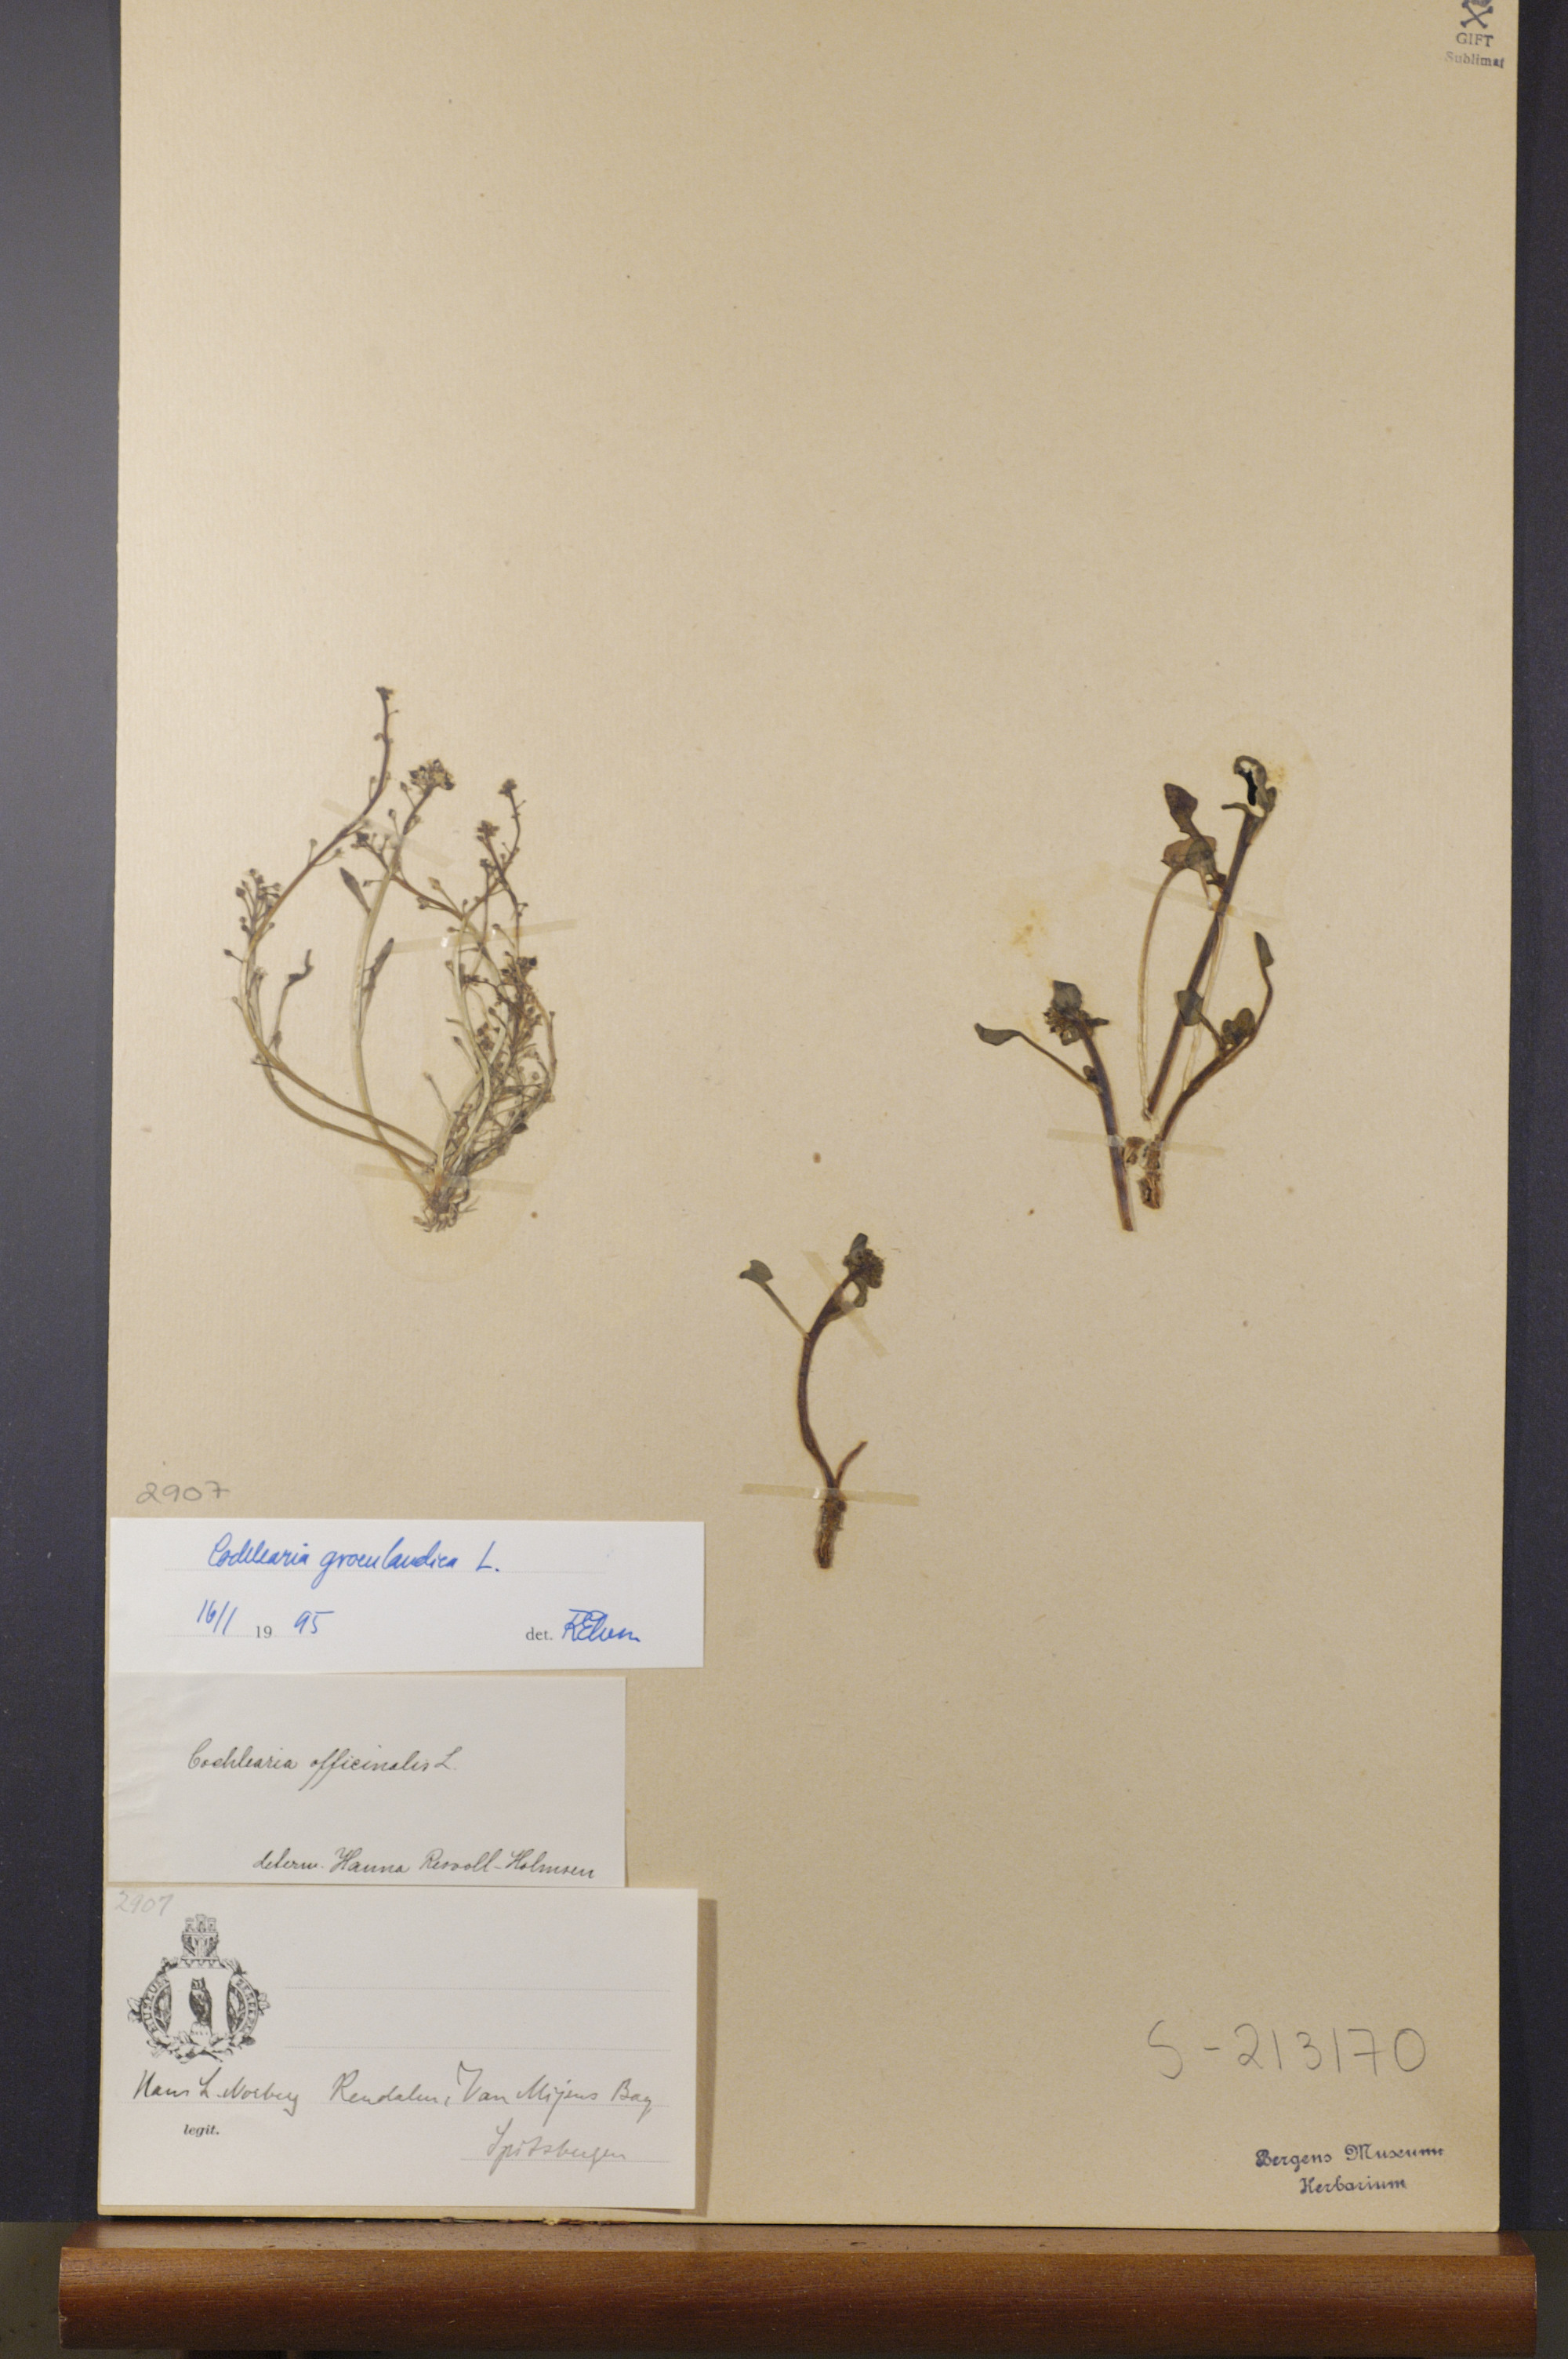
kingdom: Plantae
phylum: Tracheophyta
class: Magnoliopsida
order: Brassicales
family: Brassicaceae
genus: Cochlearia
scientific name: Cochlearia groenlandica
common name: Danish scurvygrass
